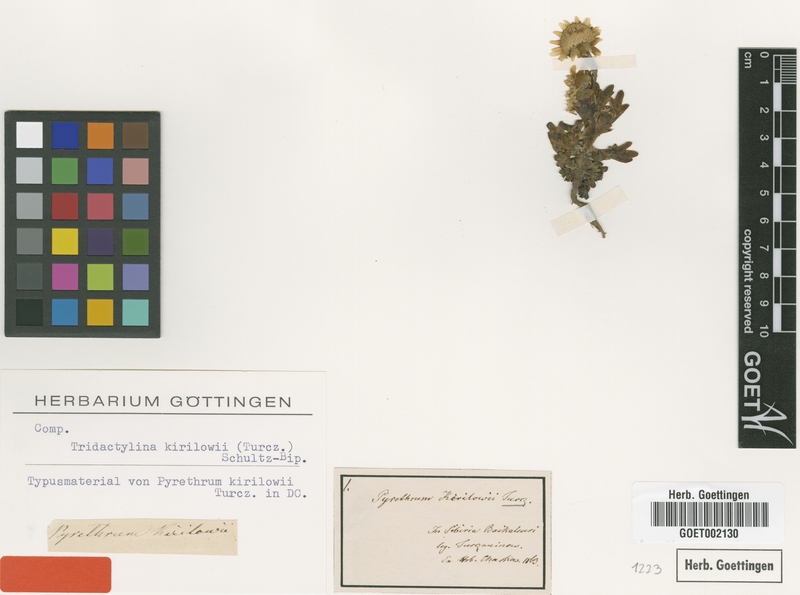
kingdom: Plantae
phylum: Tracheophyta
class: Magnoliopsida
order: Asterales
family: Asteraceae
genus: Tridactylina
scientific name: Tridactylina kirilowii
